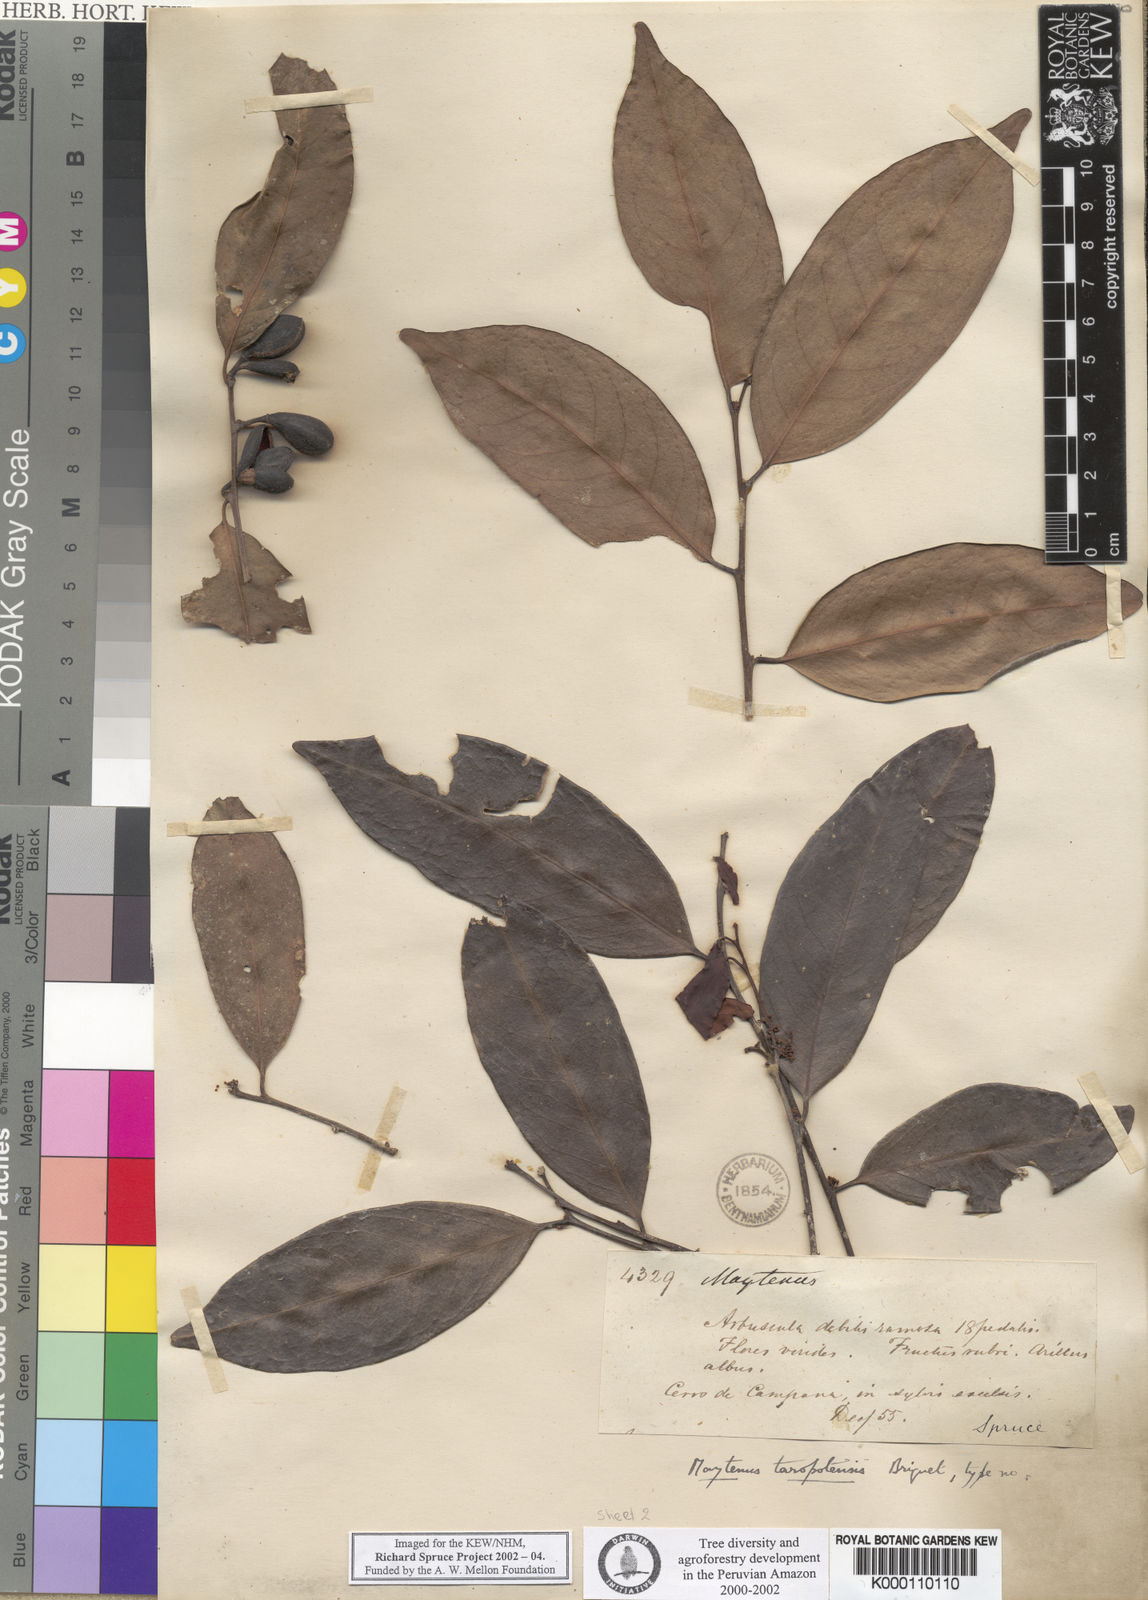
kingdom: Plantae
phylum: Tracheophyta
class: Magnoliopsida
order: Celastrales
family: Celastraceae
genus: Monteverdia
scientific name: Monteverdia macrocarpa
